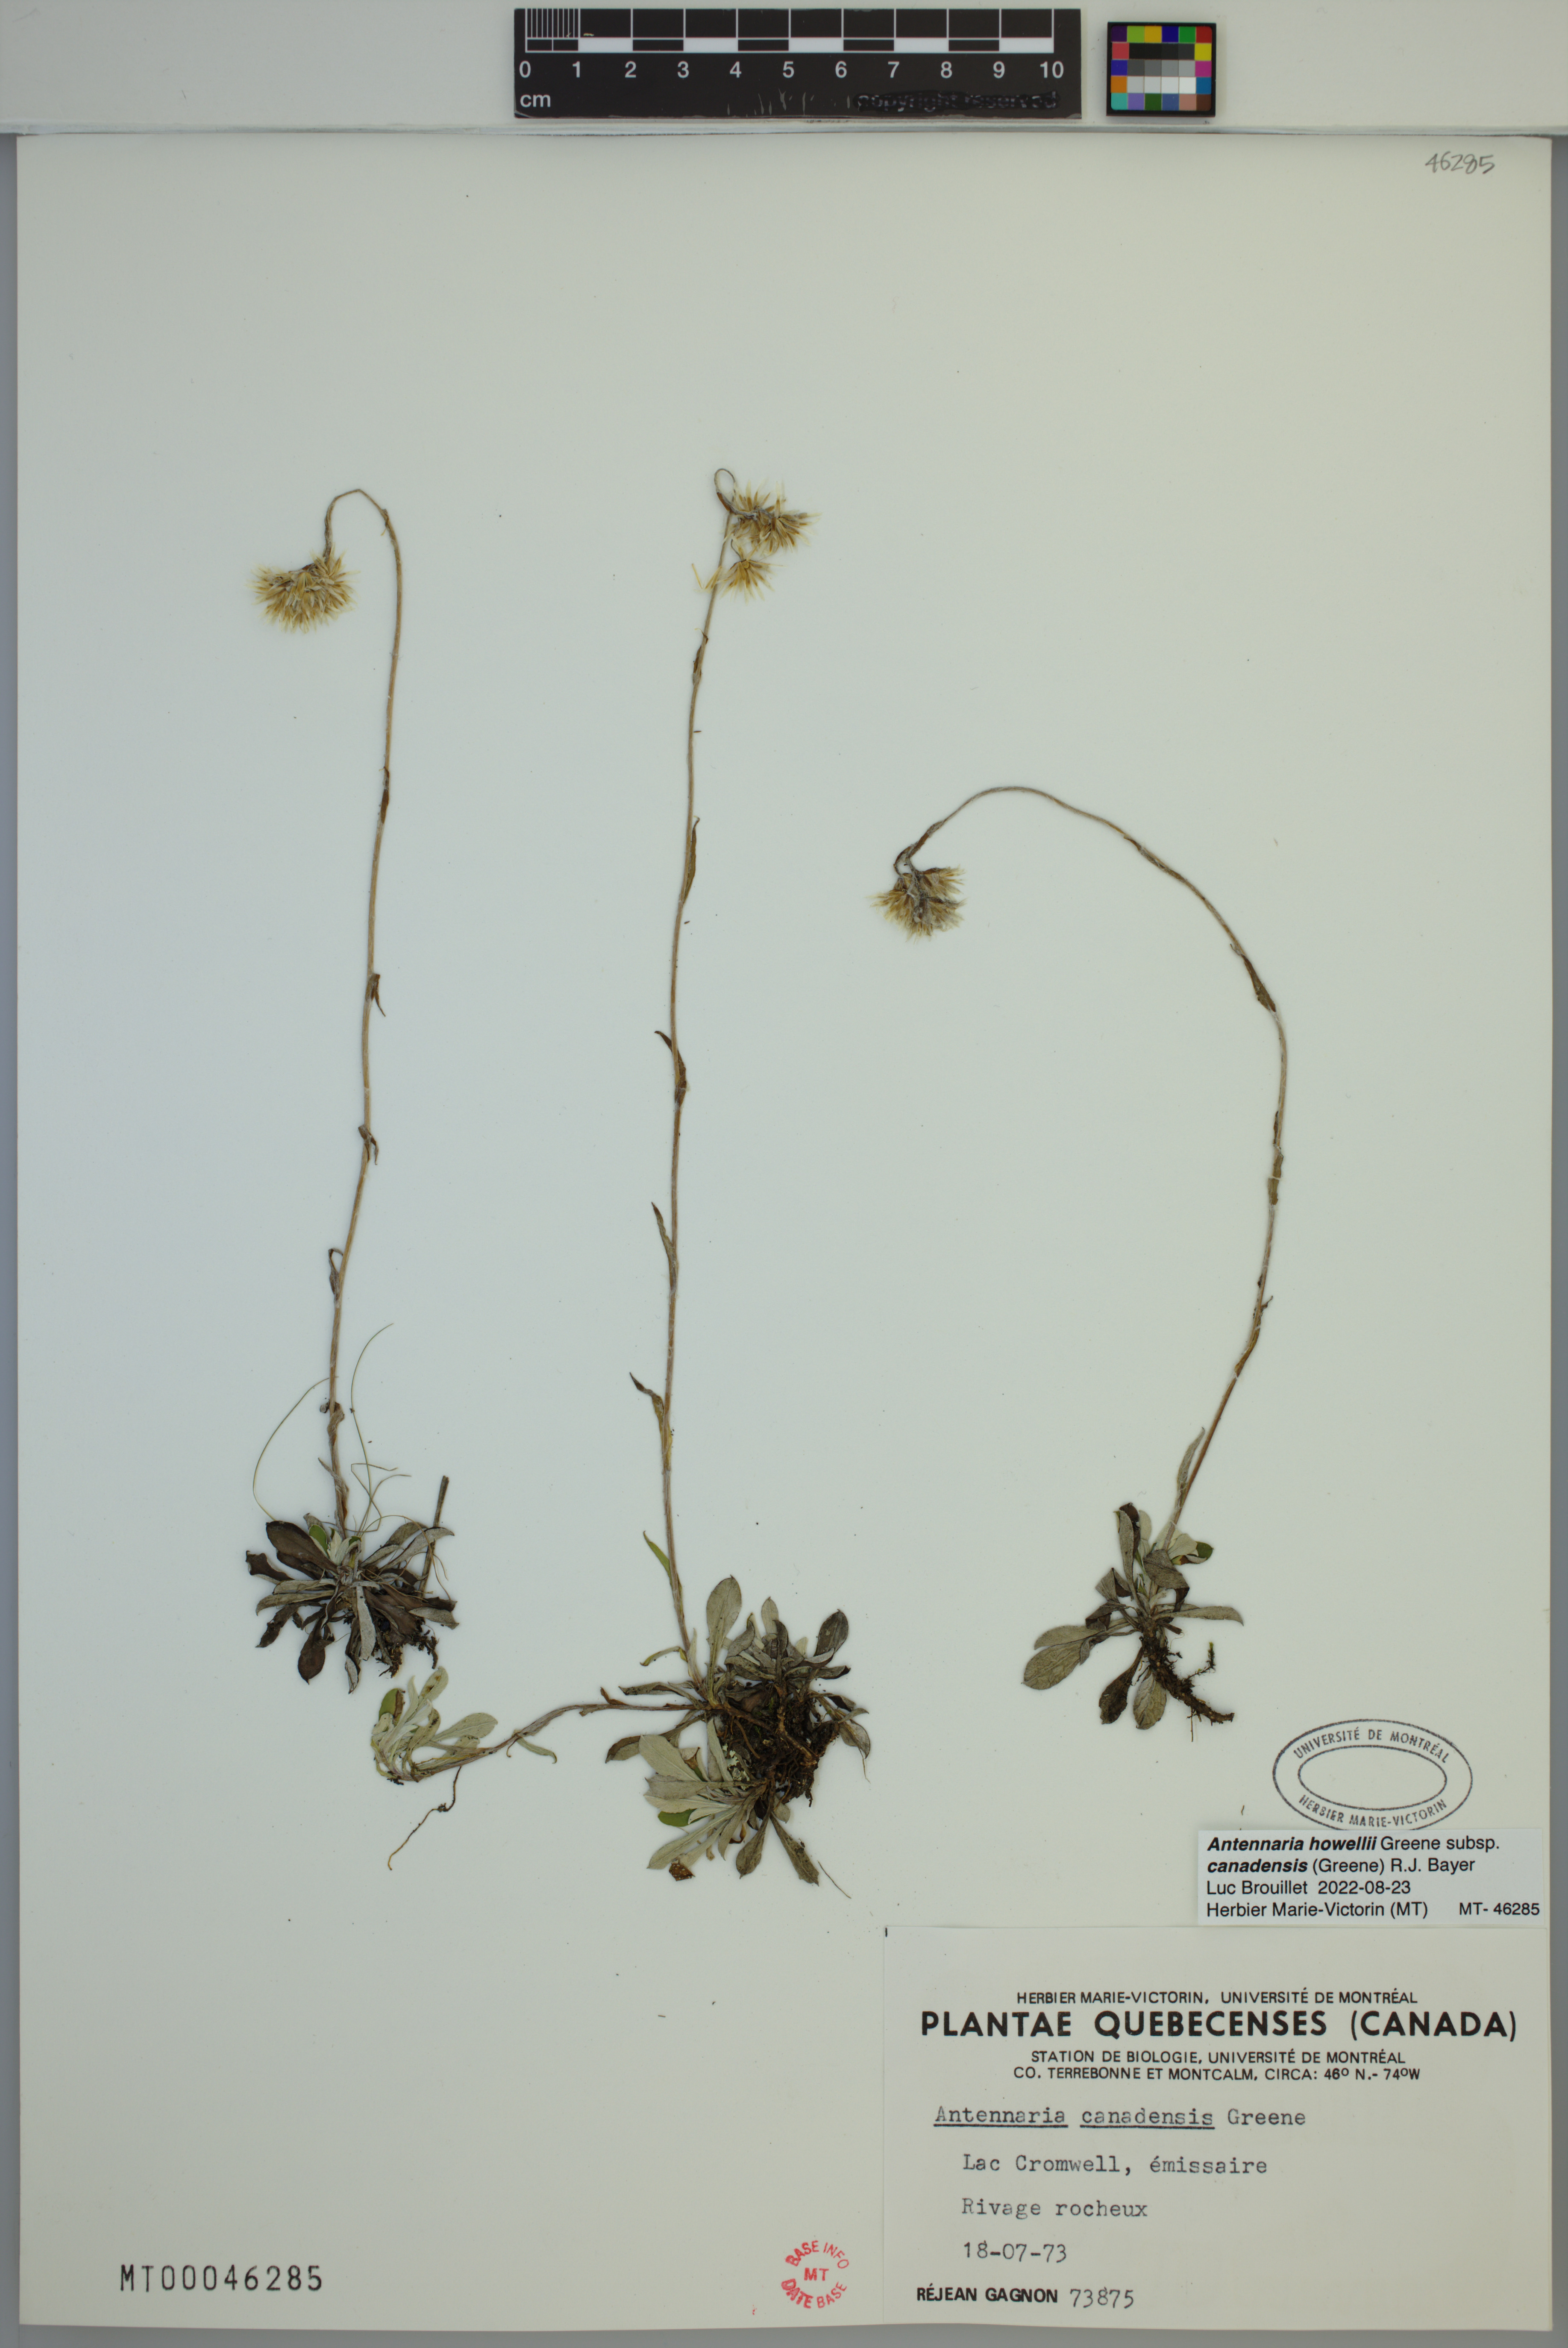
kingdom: Plantae
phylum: Tracheophyta
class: Magnoliopsida
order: Asterales
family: Asteraceae
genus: Antennaria
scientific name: Antennaria howellii
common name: Howell's pussytoes
